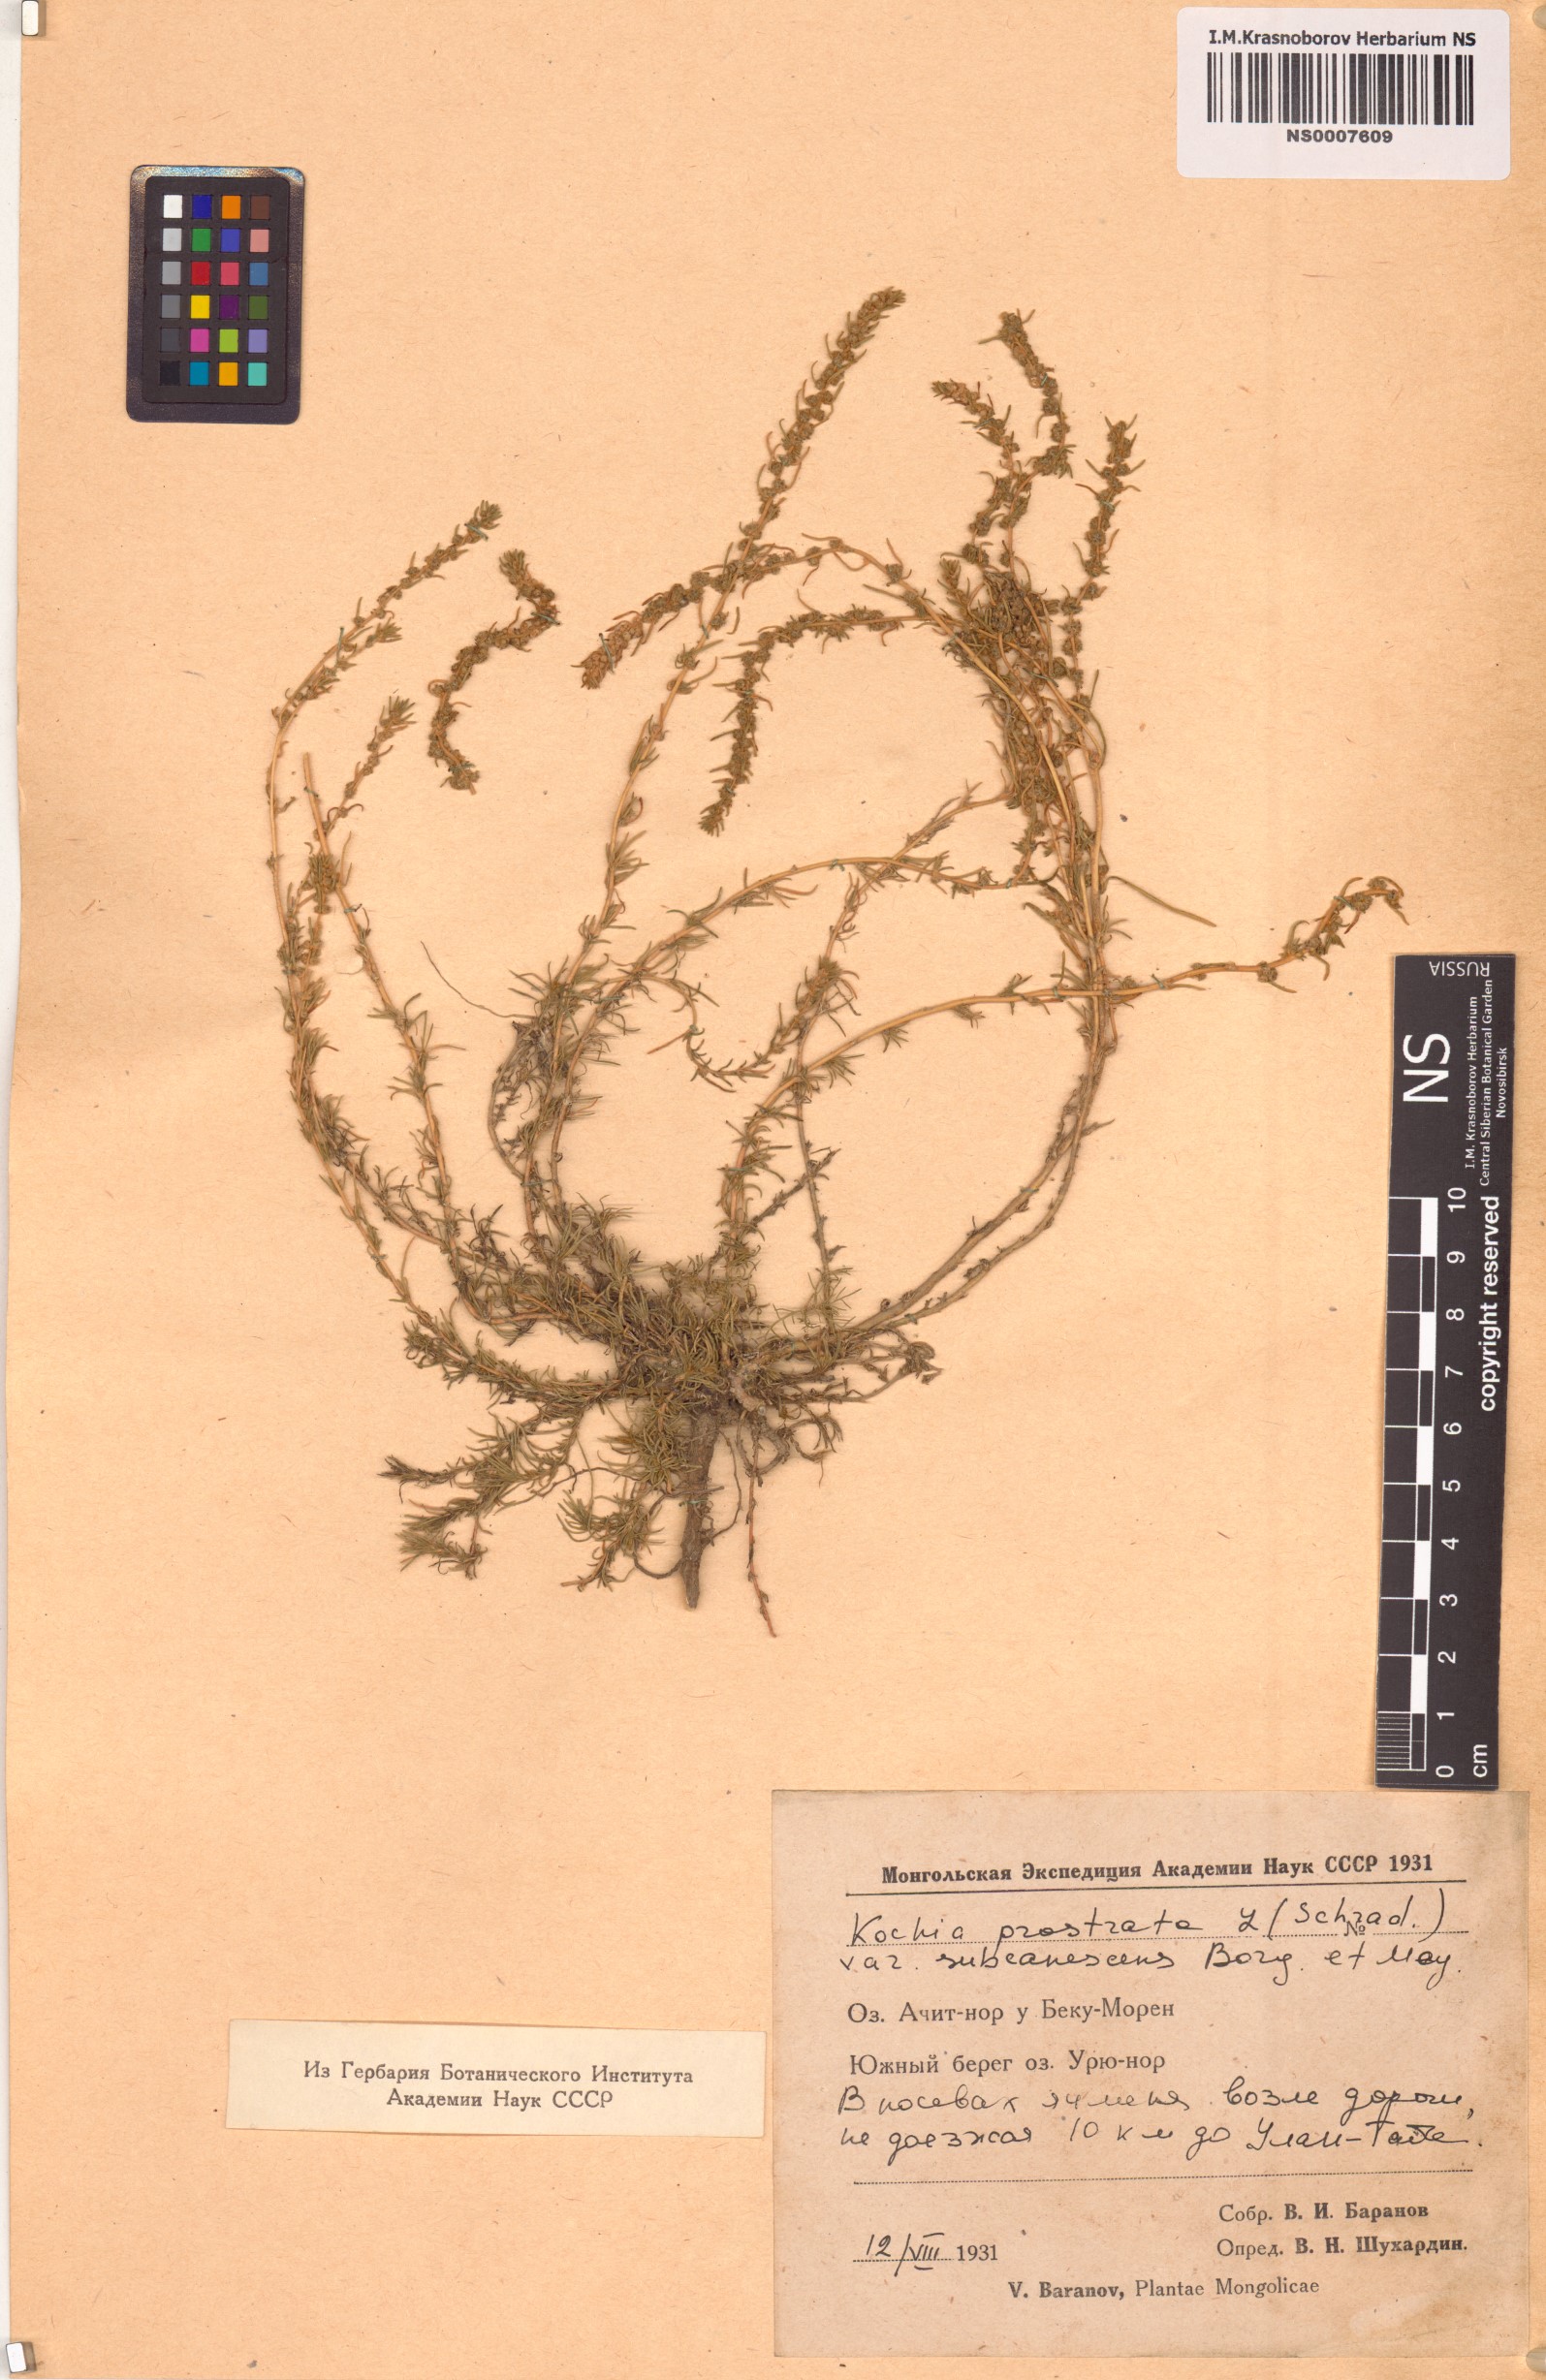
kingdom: Plantae
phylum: Tracheophyta
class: Magnoliopsida
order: Caryophyllales
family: Amaranthaceae
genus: Bassia
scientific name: Bassia prostrata
